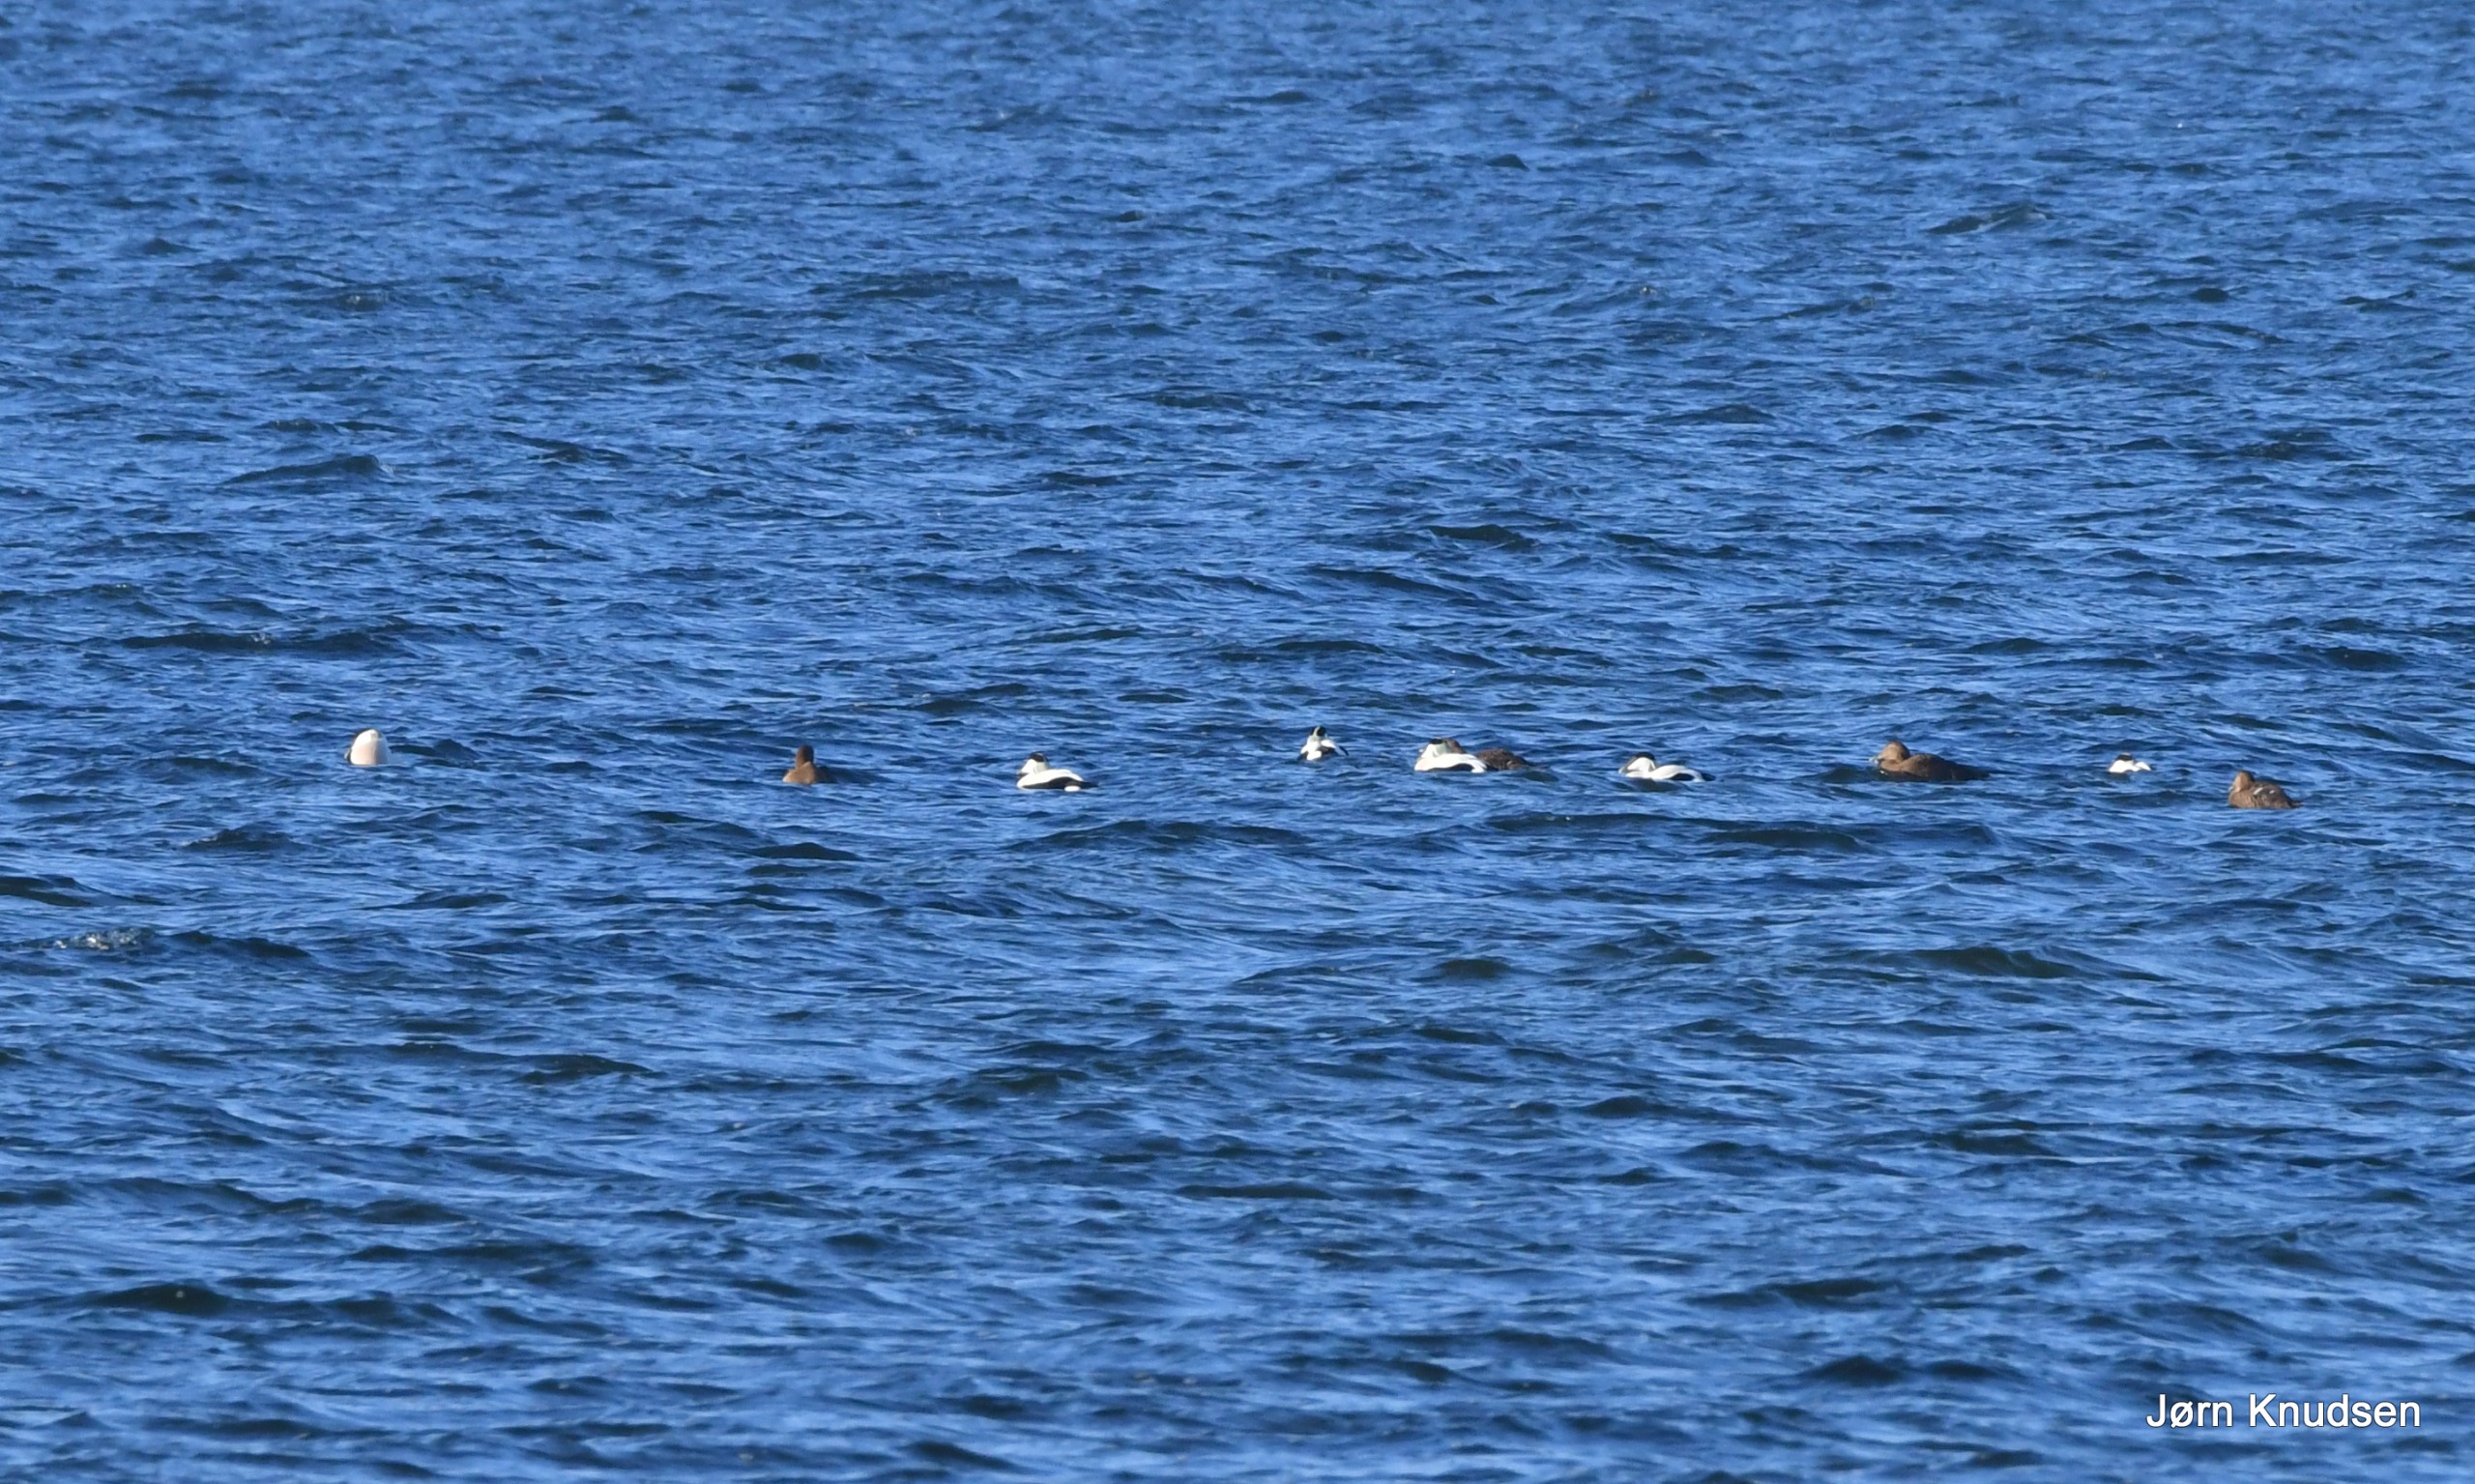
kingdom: Animalia
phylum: Chordata
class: Aves
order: Anseriformes
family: Anatidae
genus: Somateria
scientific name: Somateria mollissima
